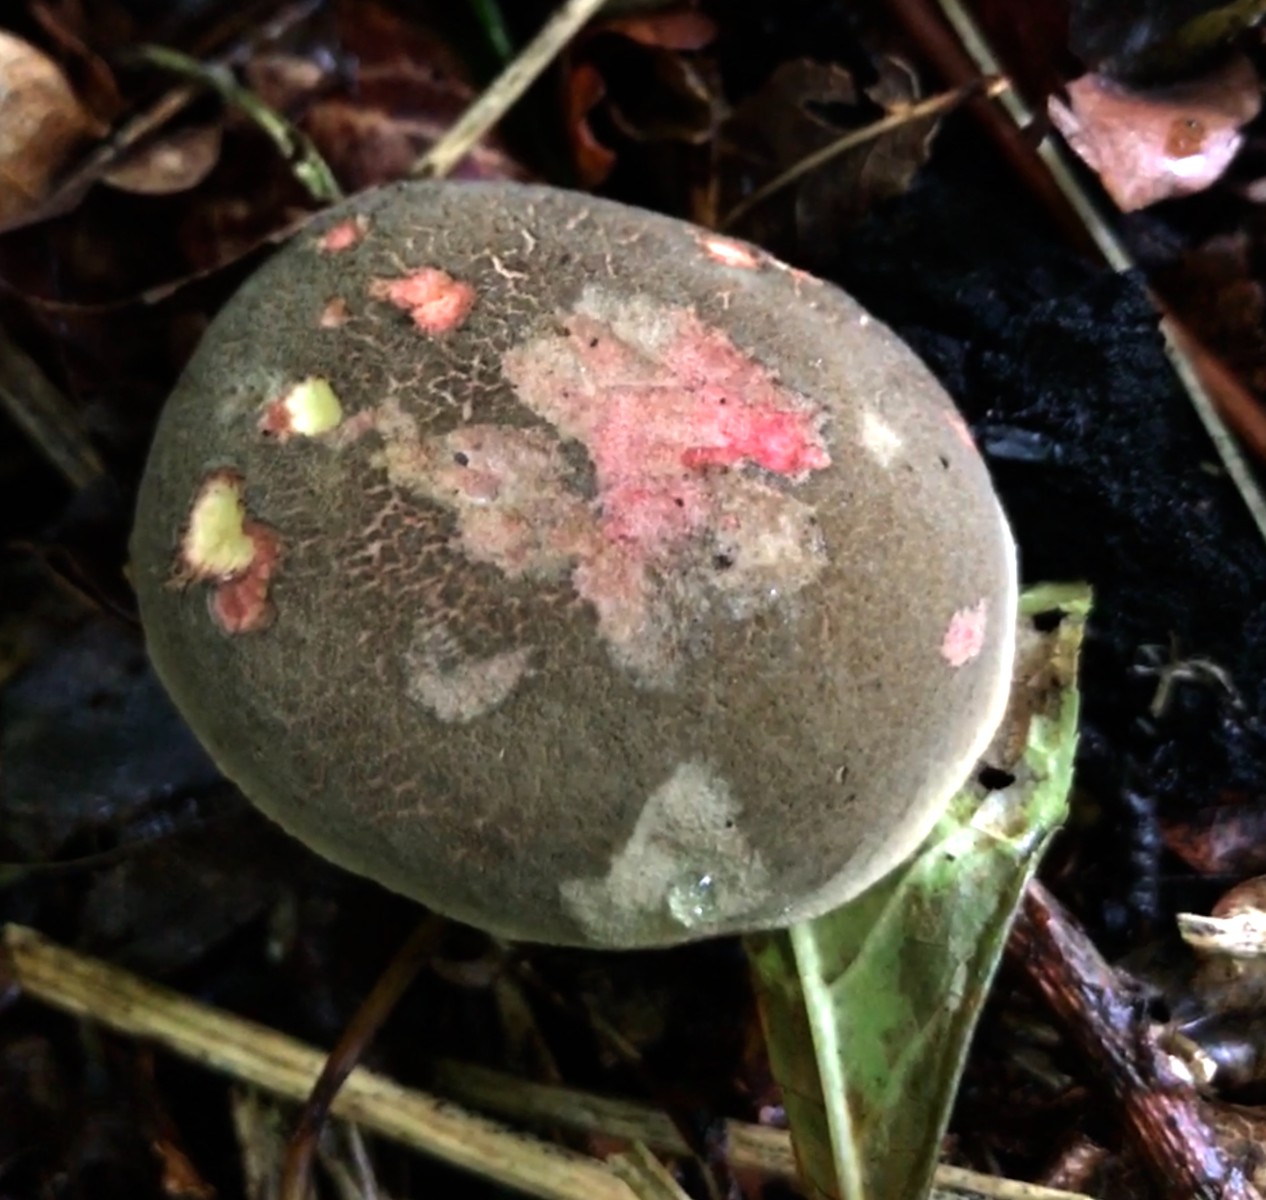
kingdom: Fungi
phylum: Basidiomycota
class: Agaricomycetes
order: Boletales
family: Boletaceae
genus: Xerocomellus
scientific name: Xerocomellus chrysenteron
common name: rødsprukken rørhat
